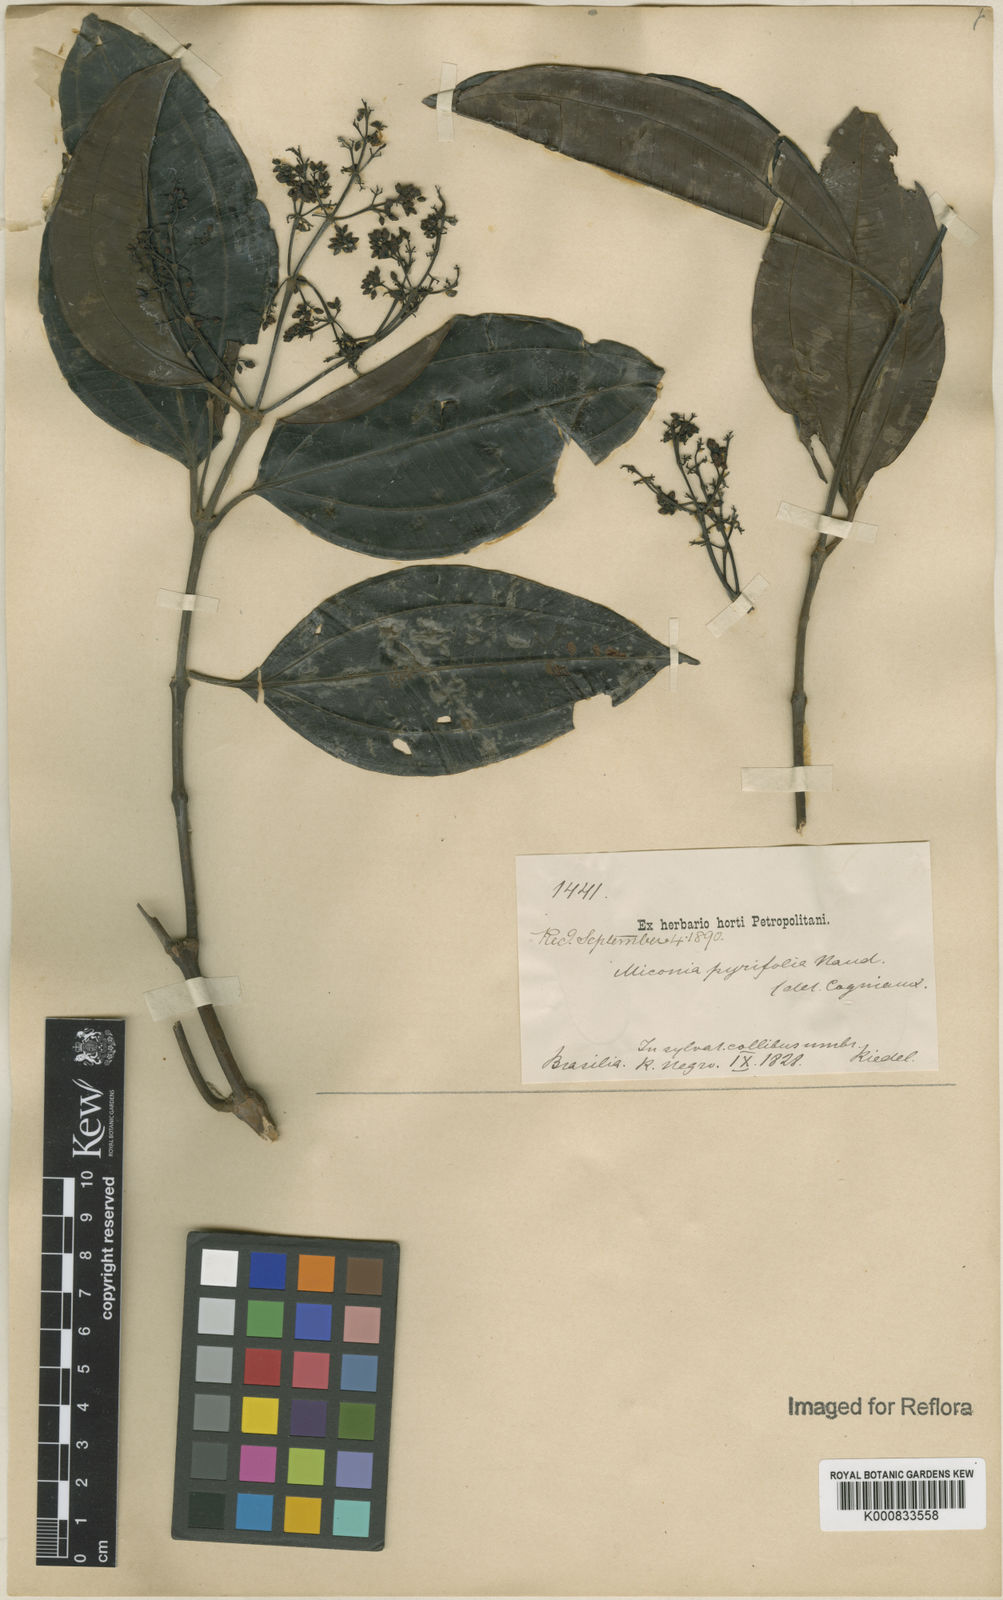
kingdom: Plantae
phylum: Tracheophyta
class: Magnoliopsida
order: Myrtales
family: Melastomataceae
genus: Miconia
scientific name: Miconia pyrifolia
